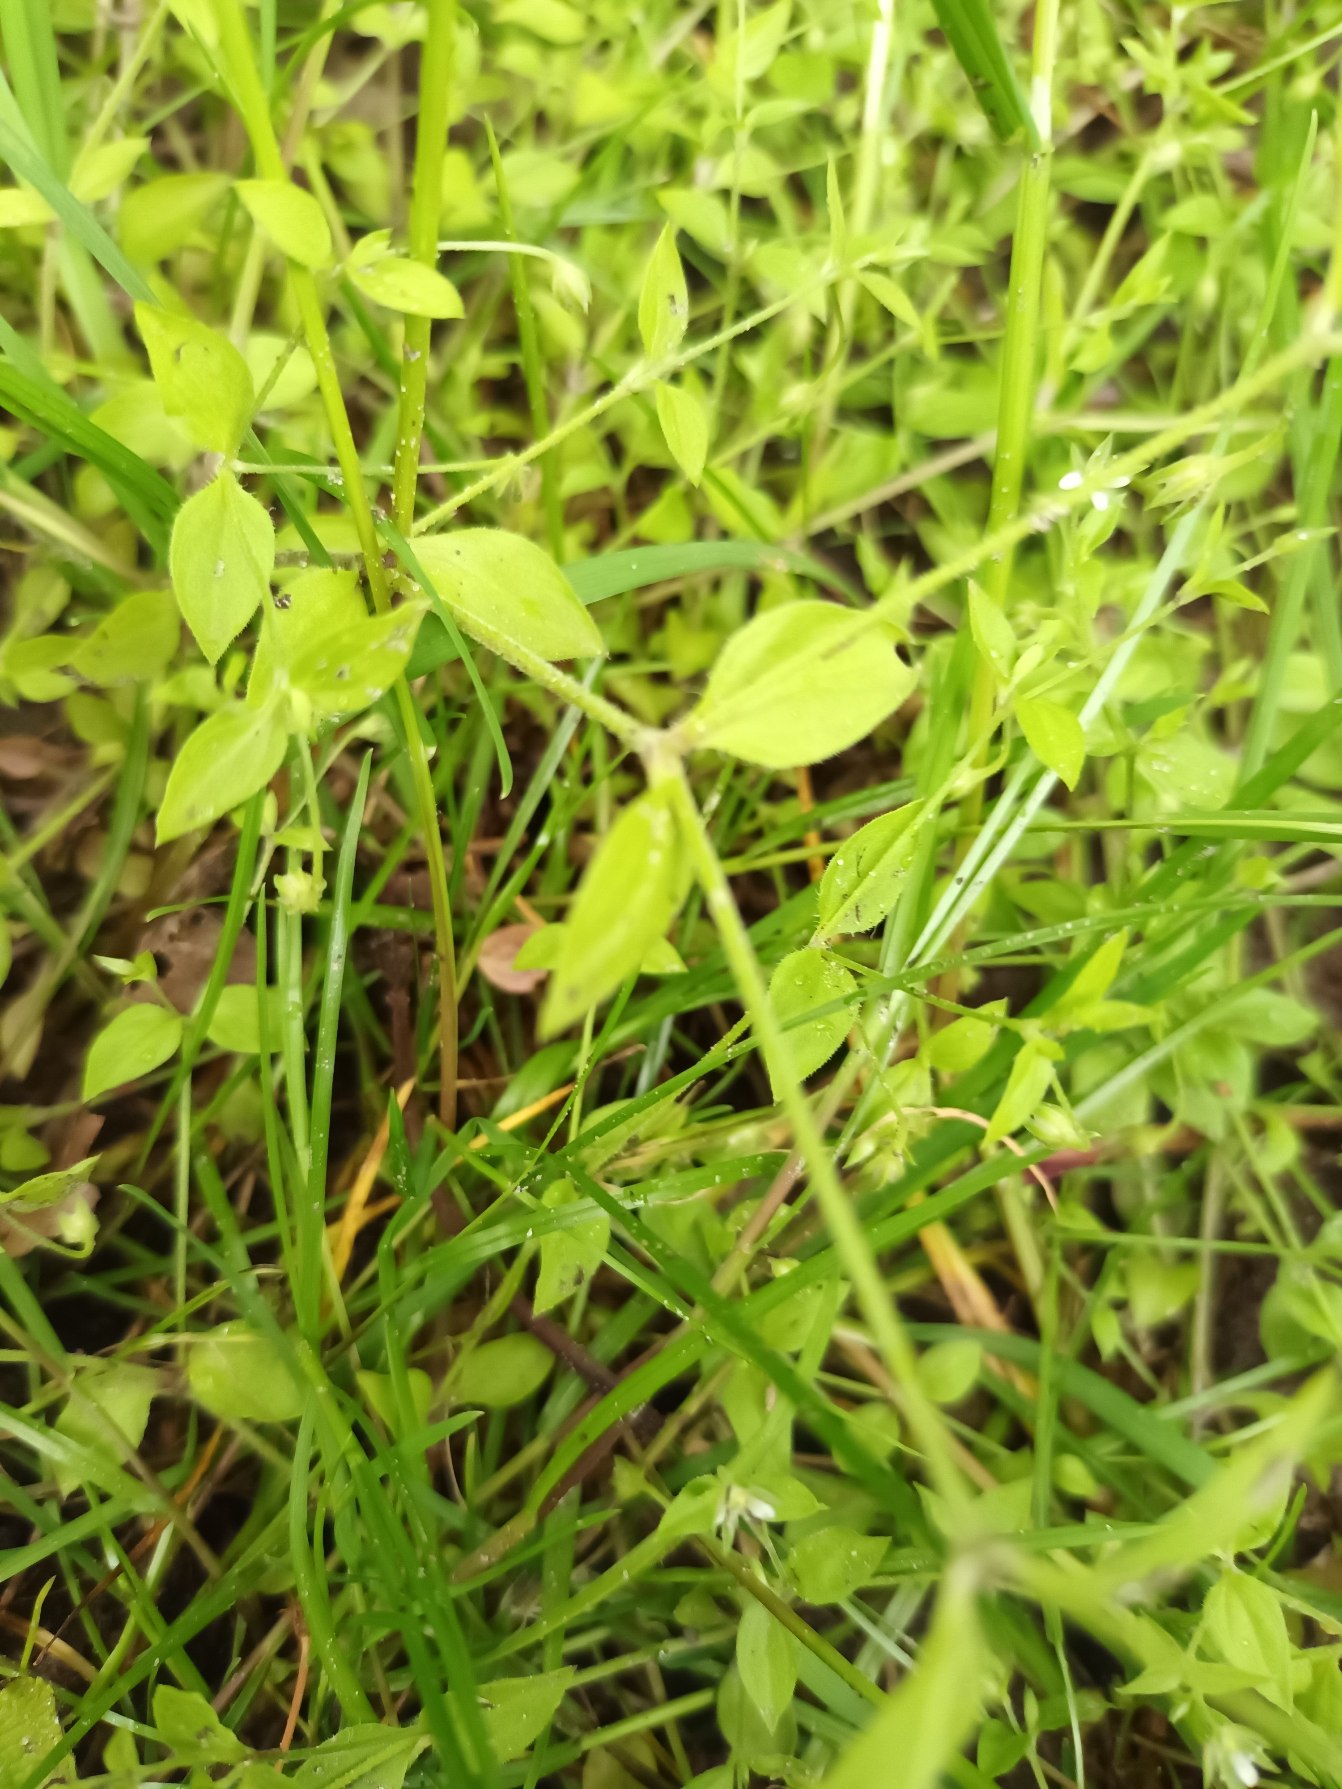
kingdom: Plantae
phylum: Tracheophyta
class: Magnoliopsida
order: Caryophyllales
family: Caryophyllaceae
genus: Moehringia
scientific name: Moehringia trinervia
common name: Skovarve
